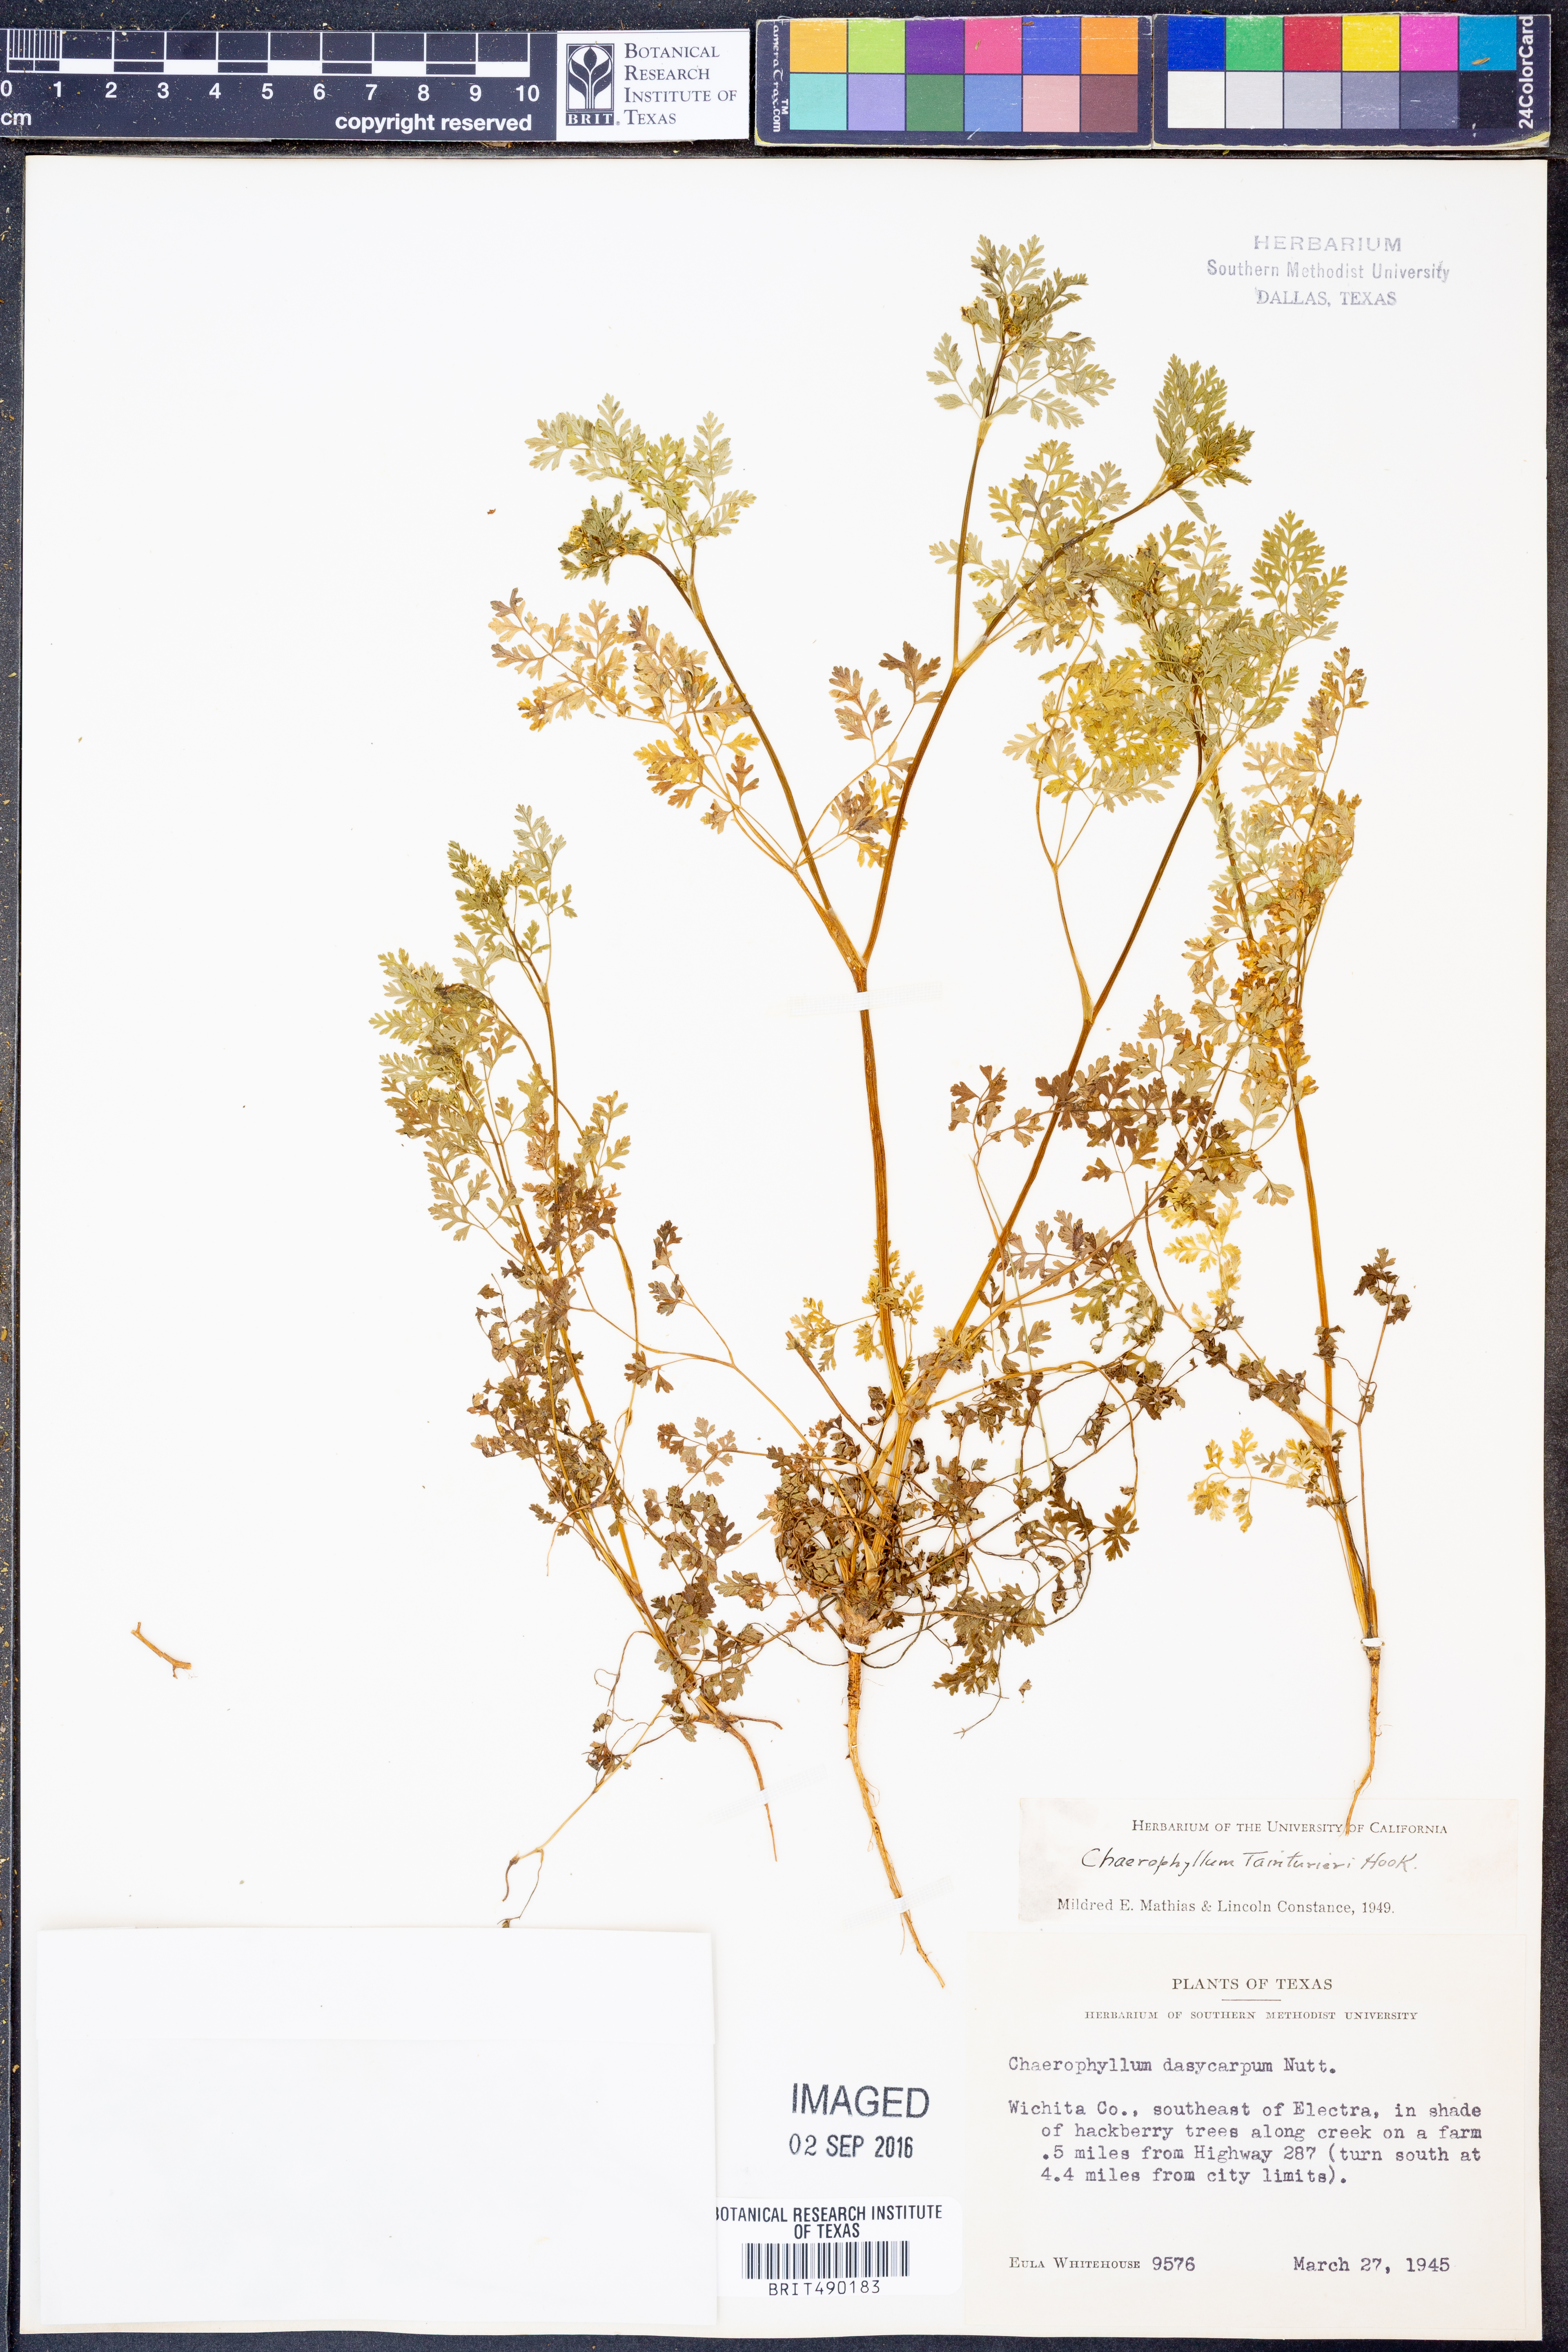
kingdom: Plantae
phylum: Tracheophyta
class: Magnoliopsida
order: Apiales
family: Apiaceae
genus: Chaerophyllum
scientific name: Chaerophyllum tainturieri
